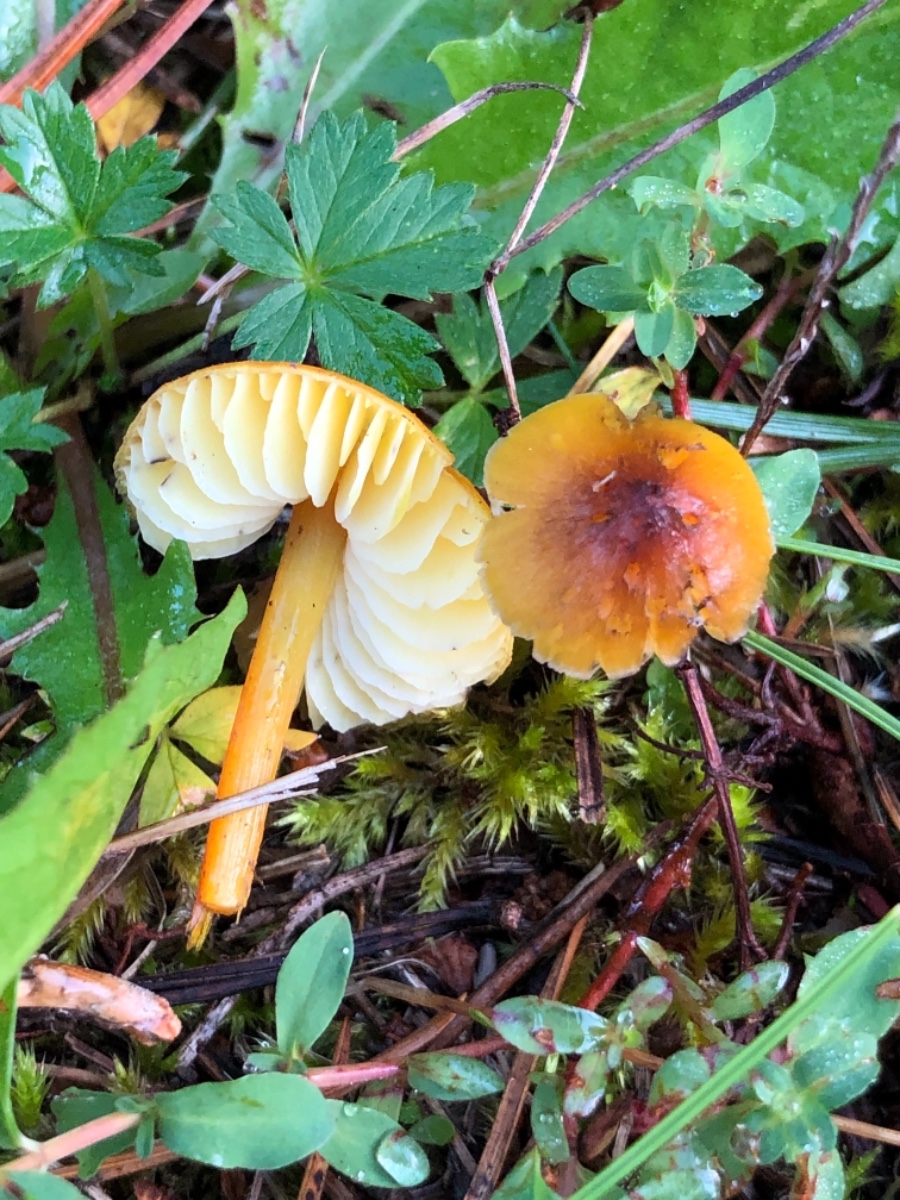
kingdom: Fungi
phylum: Basidiomycota
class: Agaricomycetes
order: Agaricales
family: Hygrophoraceae
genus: Hygrocybe
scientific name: Hygrocybe conica
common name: kegle-vokshat
